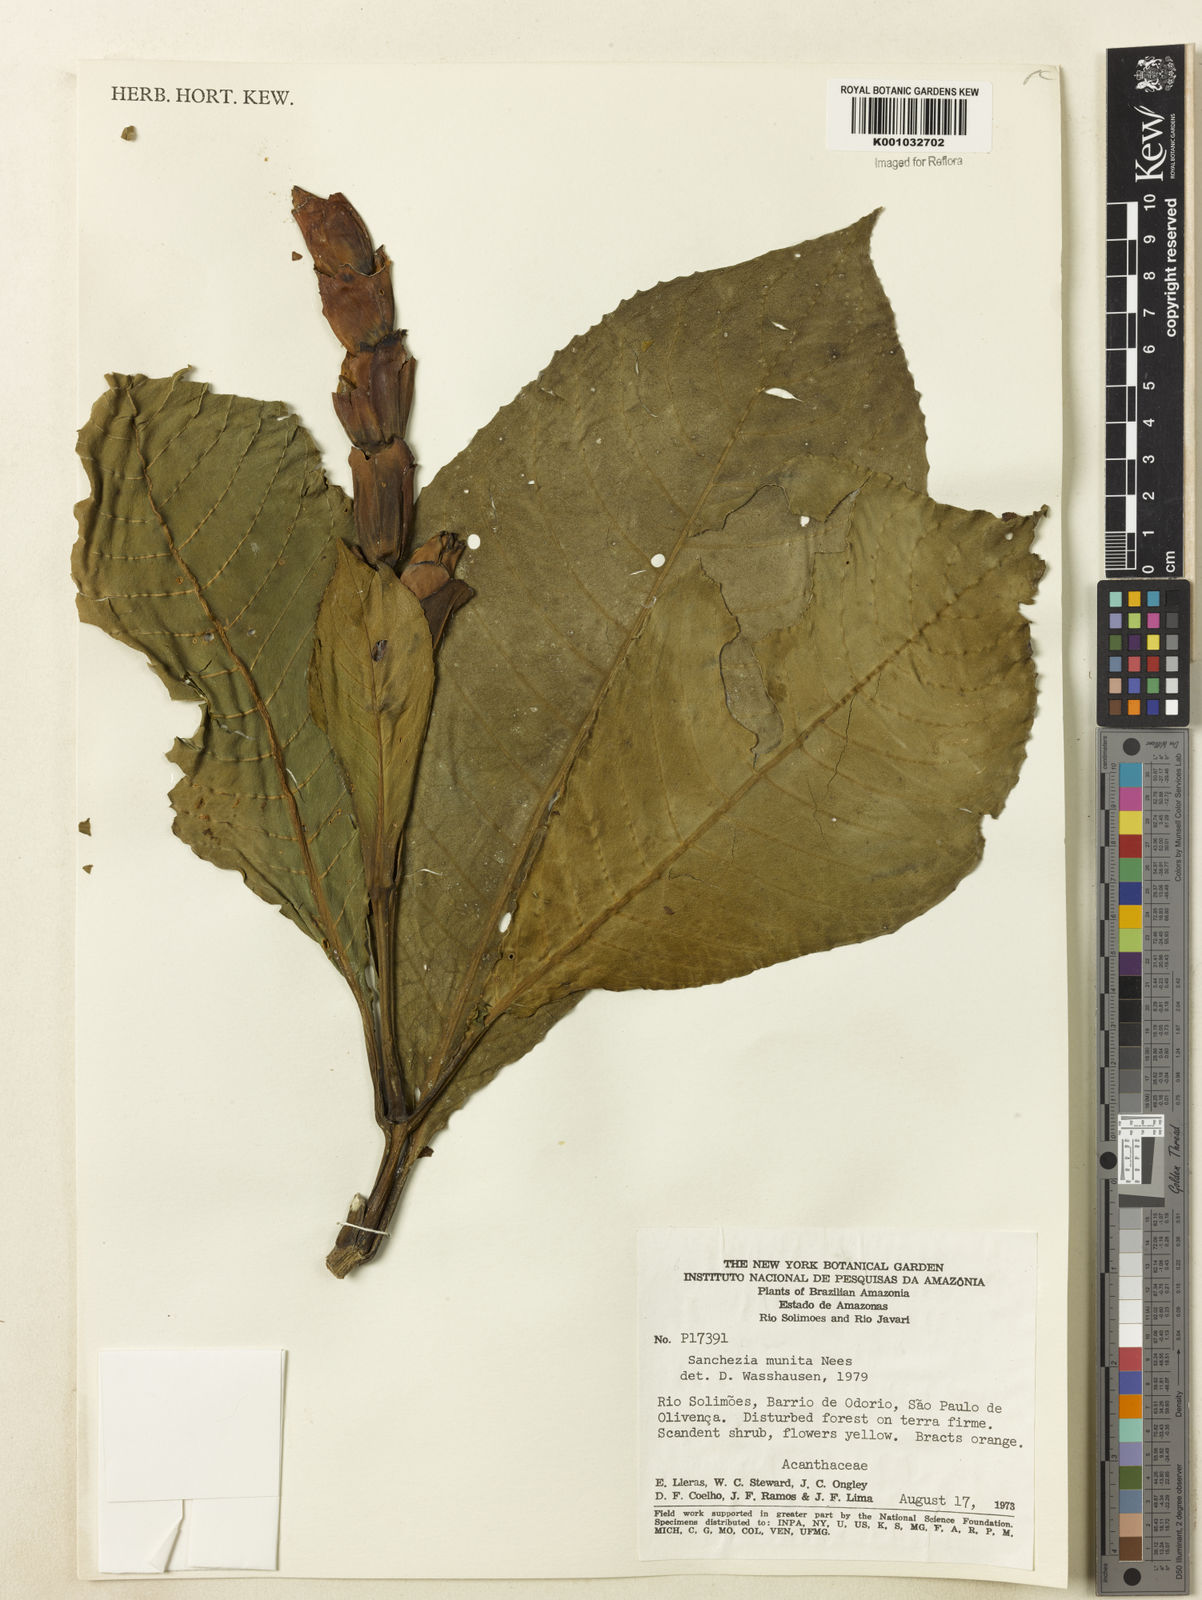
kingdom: Plantae
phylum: Tracheophyta
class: Magnoliopsida
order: Lamiales
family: Acanthaceae
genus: Sanchezia
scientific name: Sanchezia munita
